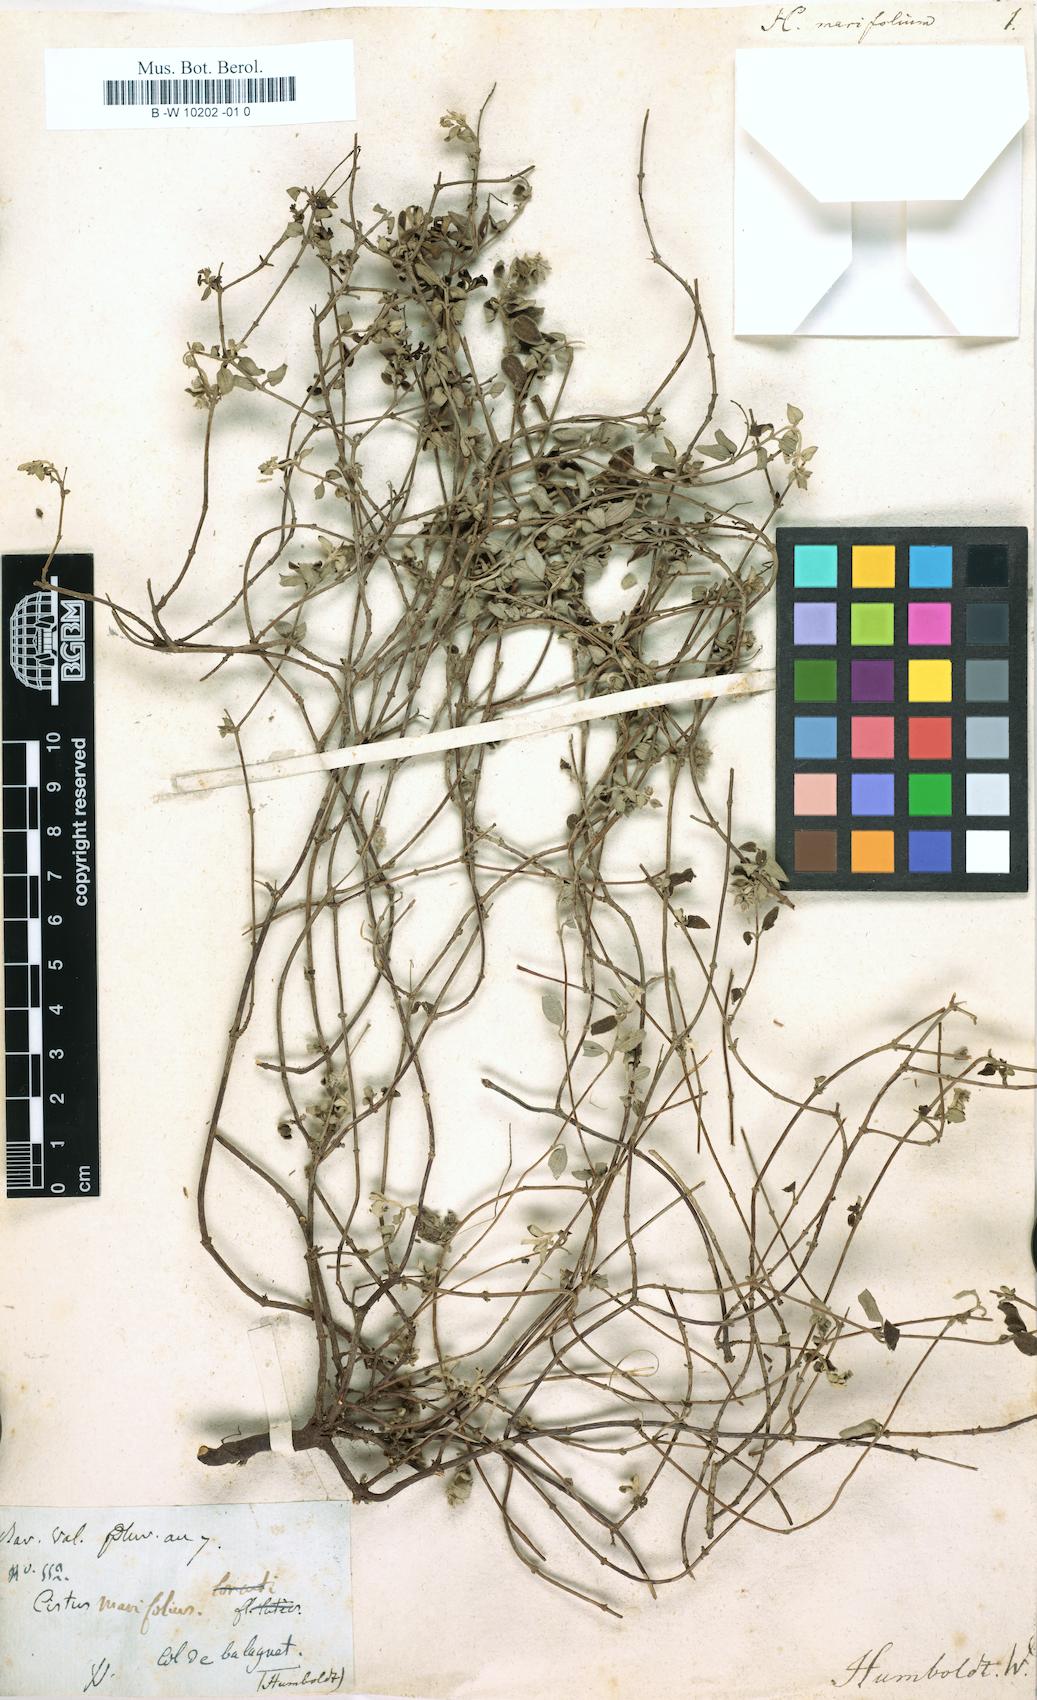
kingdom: Plantae
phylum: Tracheophyta
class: Magnoliopsida
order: Malvales
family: Cistaceae
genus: Helianthemum
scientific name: Helianthemum marifolium
